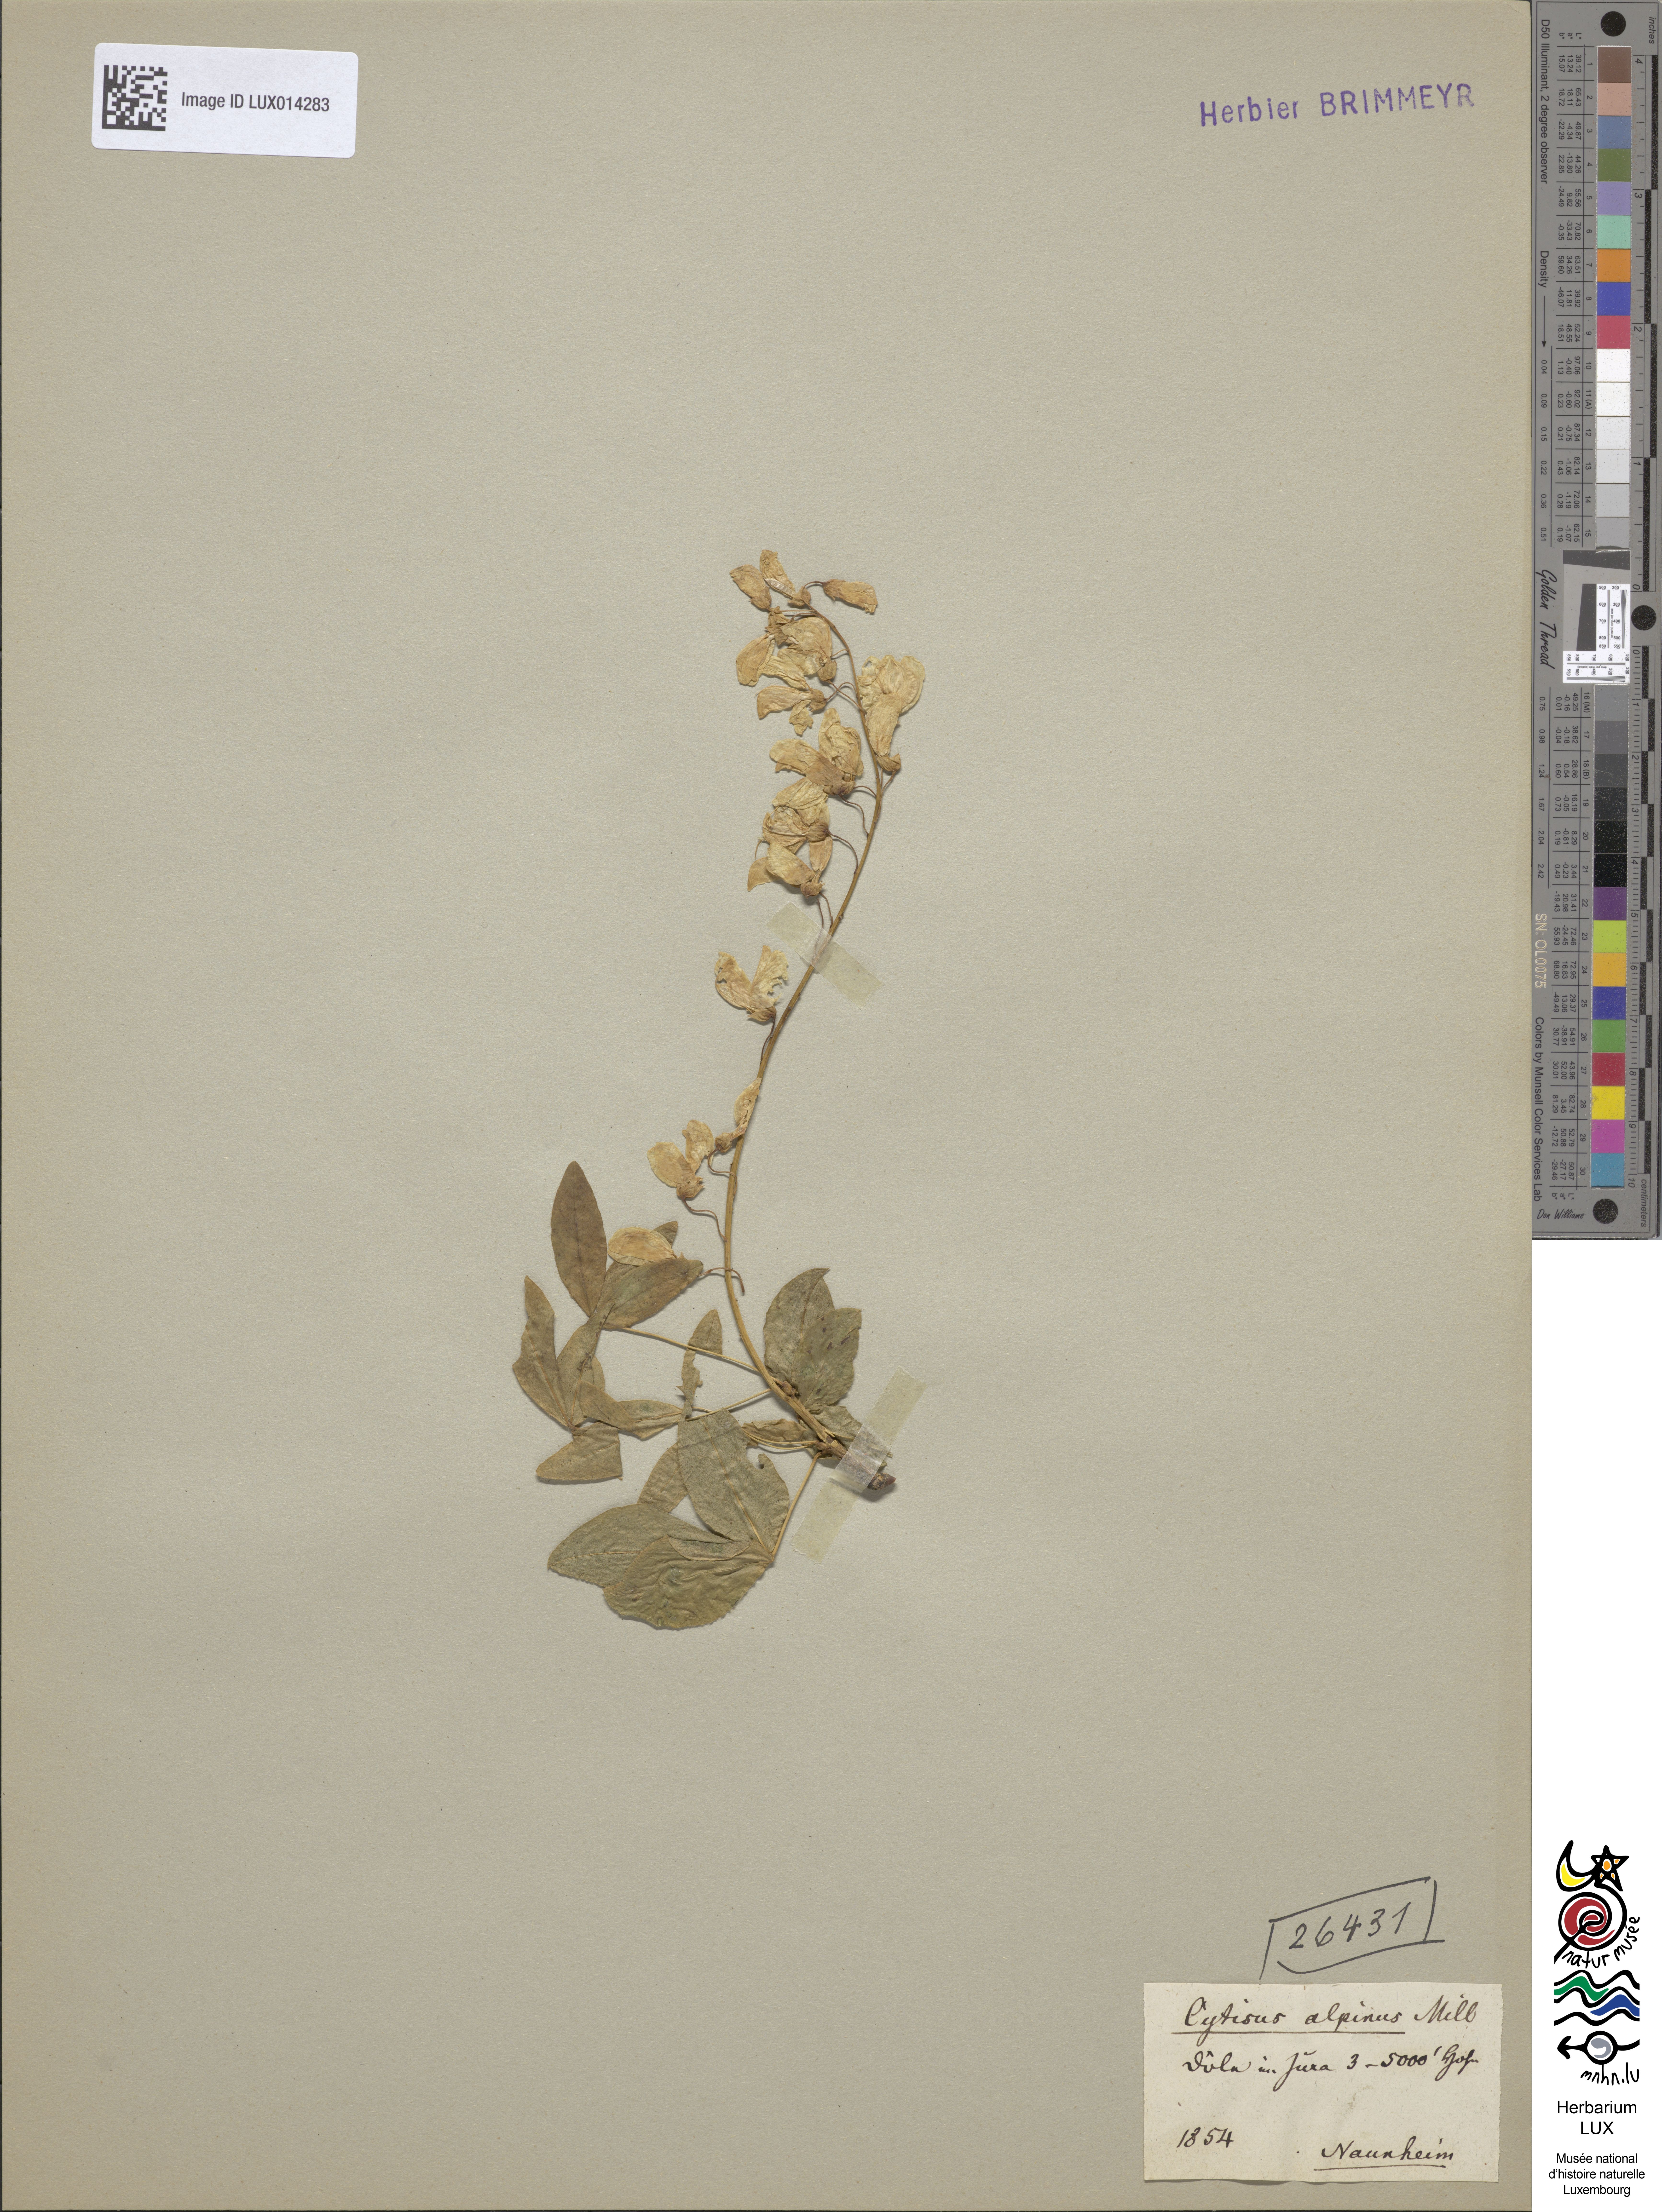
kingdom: Plantae
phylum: Tracheophyta
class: Magnoliopsida
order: Fabales
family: Fabaceae
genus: Laburnum
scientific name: Laburnum alpinum
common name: Scottish laburnum
